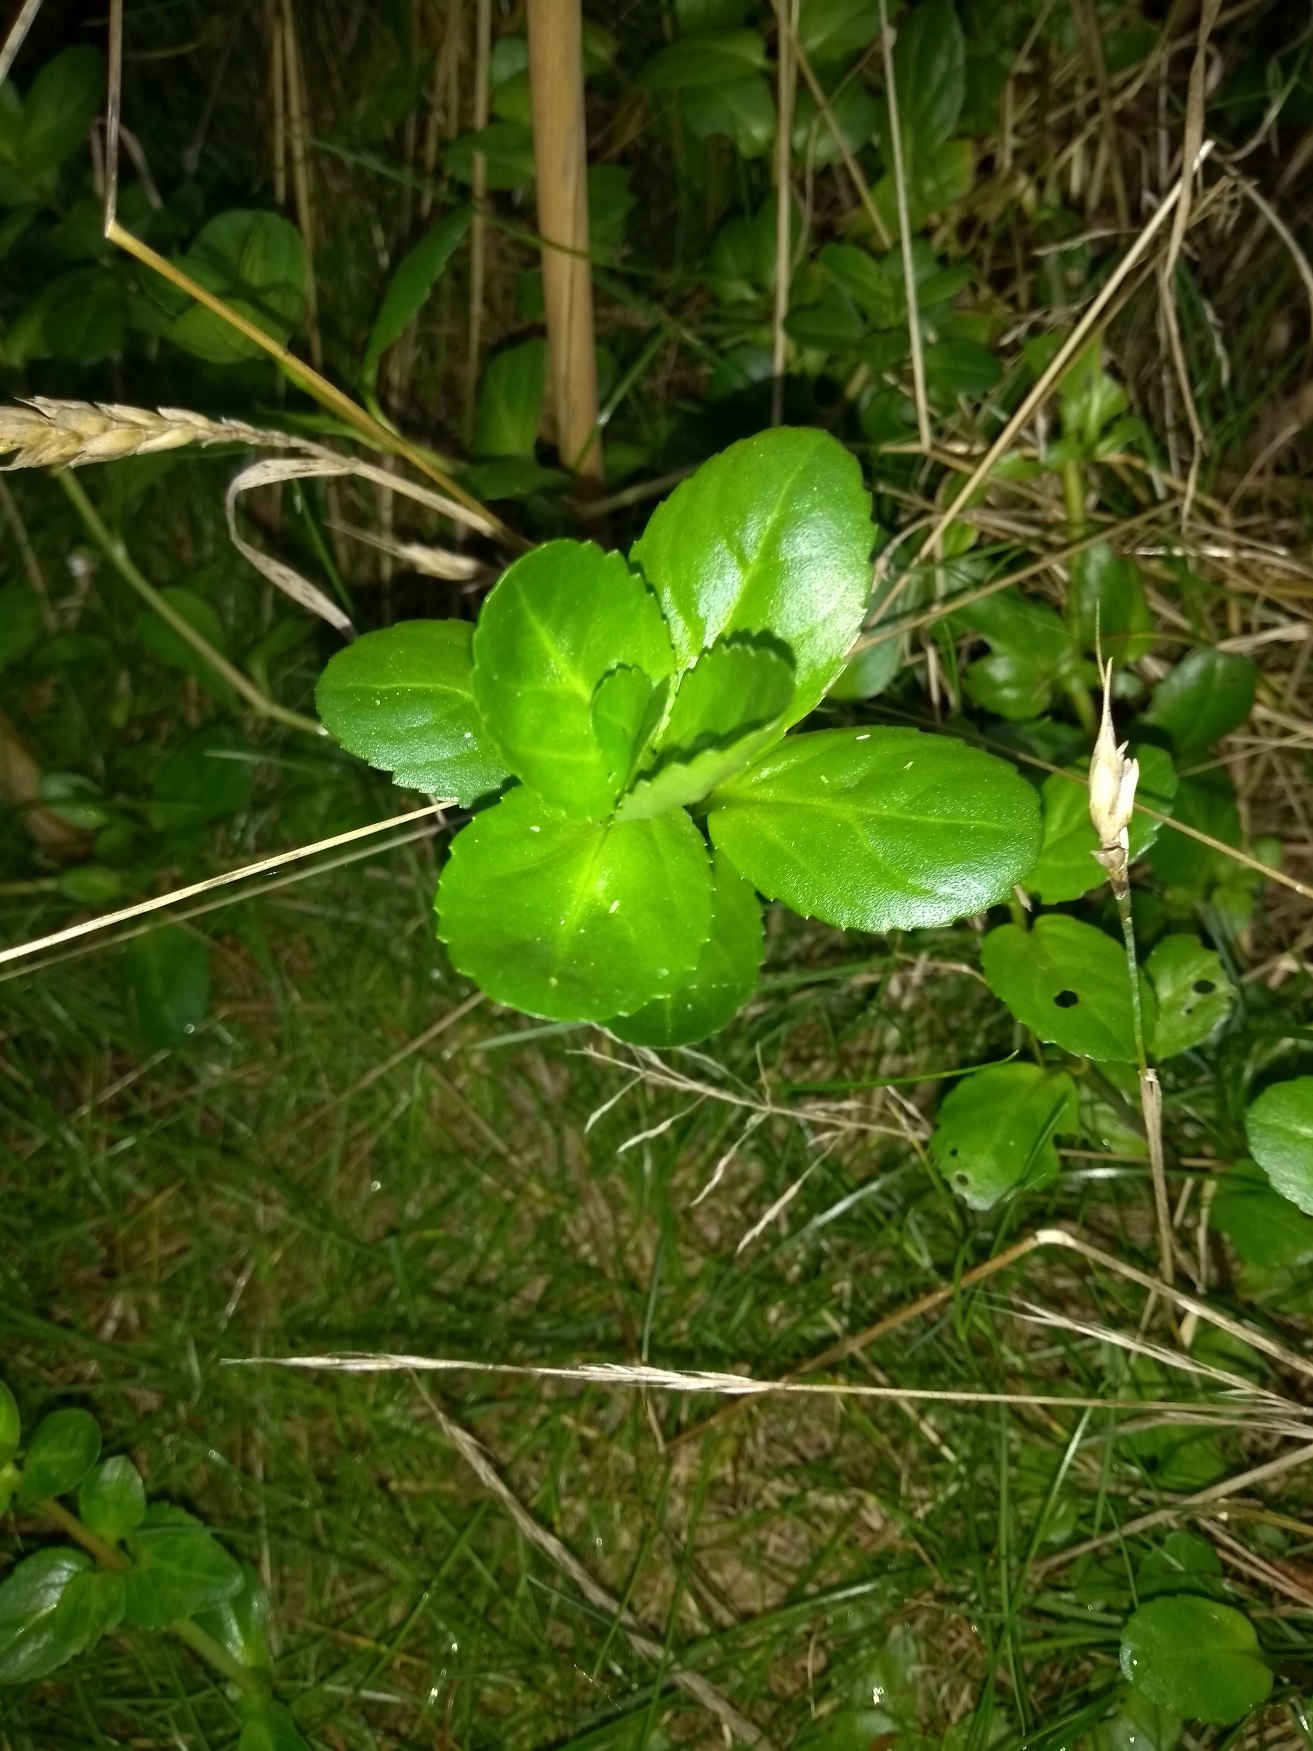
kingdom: Plantae
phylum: Tracheophyta
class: Magnoliopsida
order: Lamiales
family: Plantaginaceae
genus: Veronica
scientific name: Veronica beccabunga
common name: Tykbladet ærenpris
